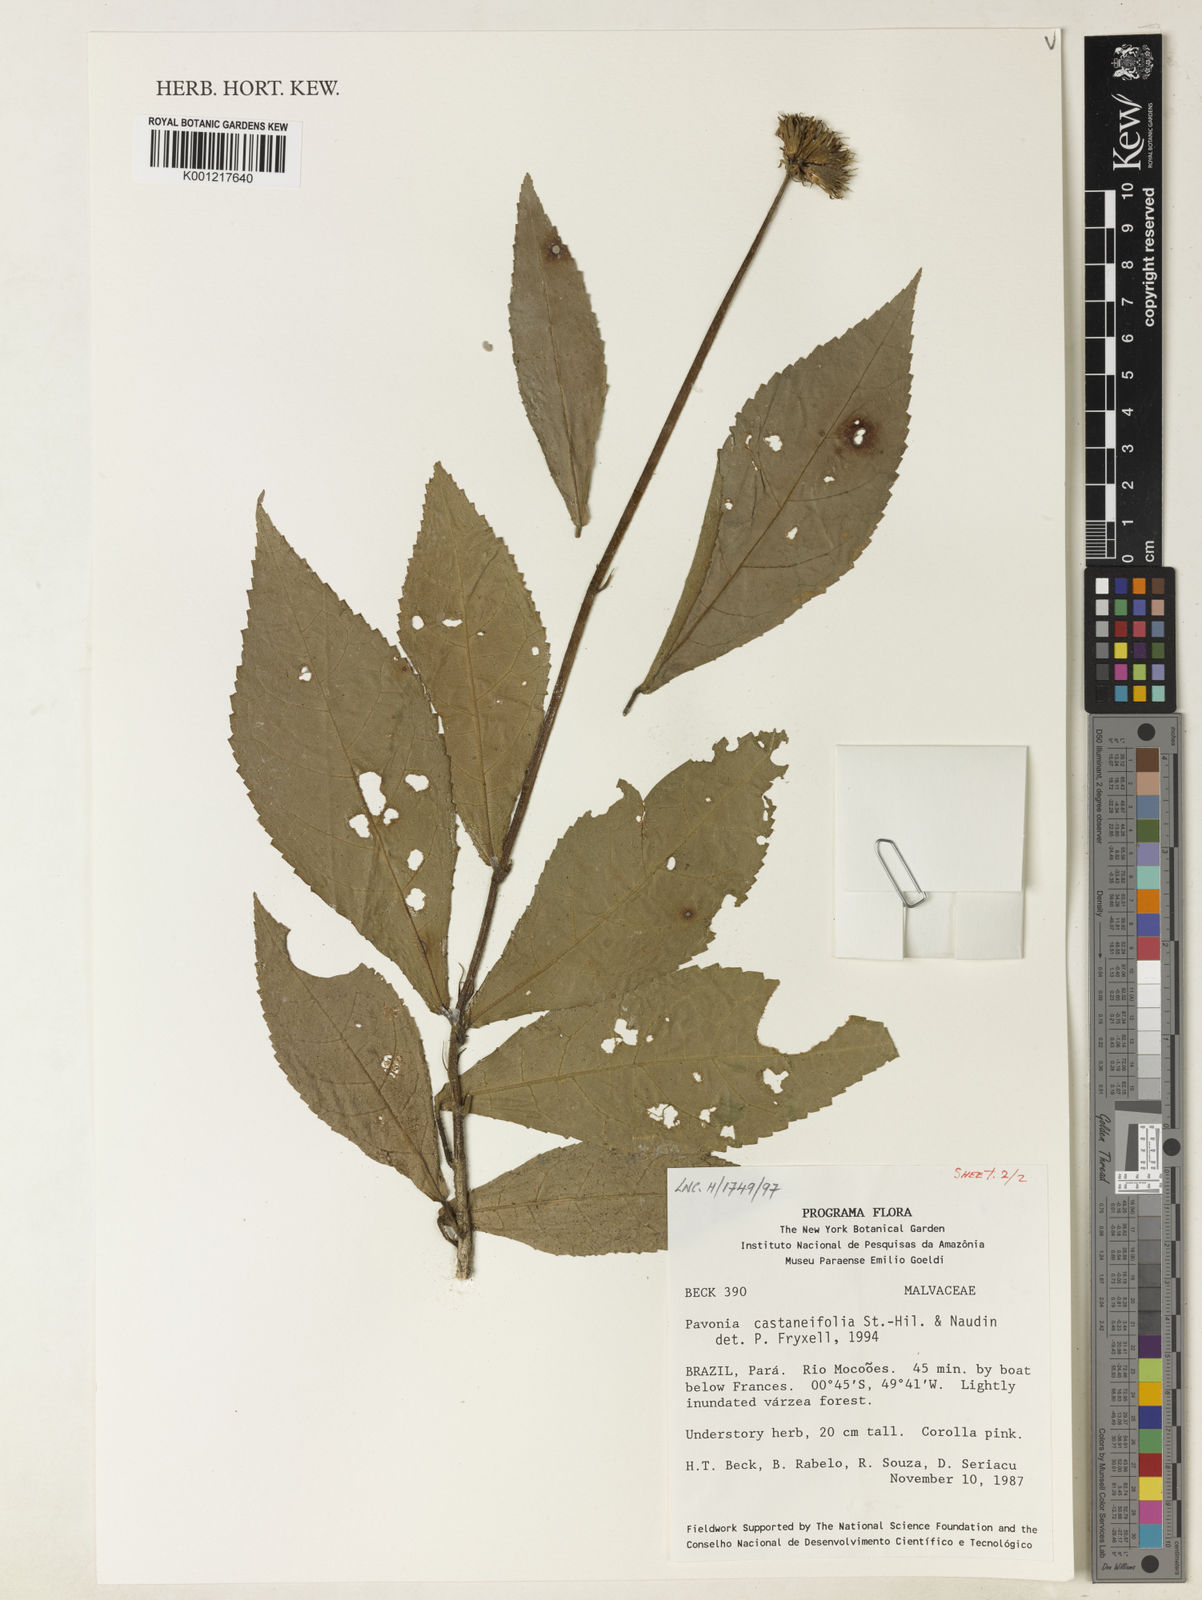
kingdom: Plantae
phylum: Tracheophyta
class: Magnoliopsida
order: Malvales
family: Malvaceae
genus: Pavonia
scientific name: Pavonia castaneifolia
